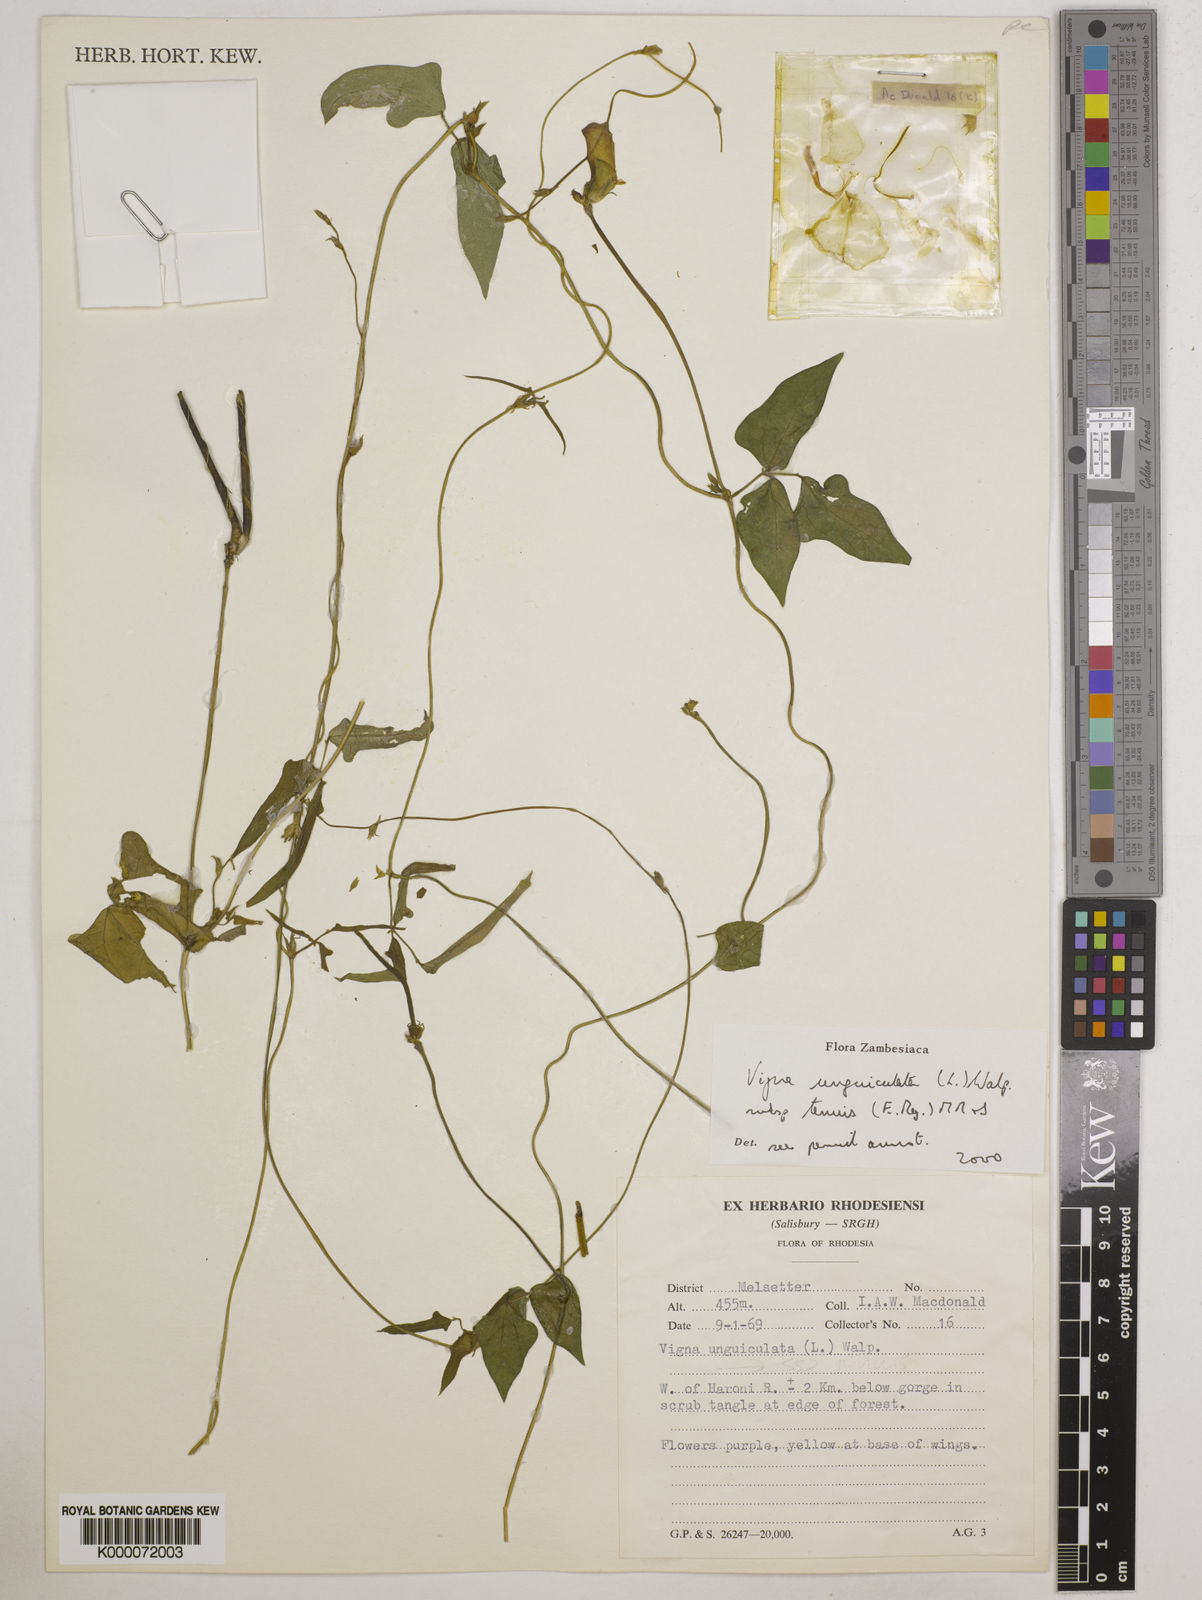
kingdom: Plantae
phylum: Tracheophyta
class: Magnoliopsida
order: Fabales
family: Fabaceae
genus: Vigna
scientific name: Vigna unguiculata
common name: Cowpea
